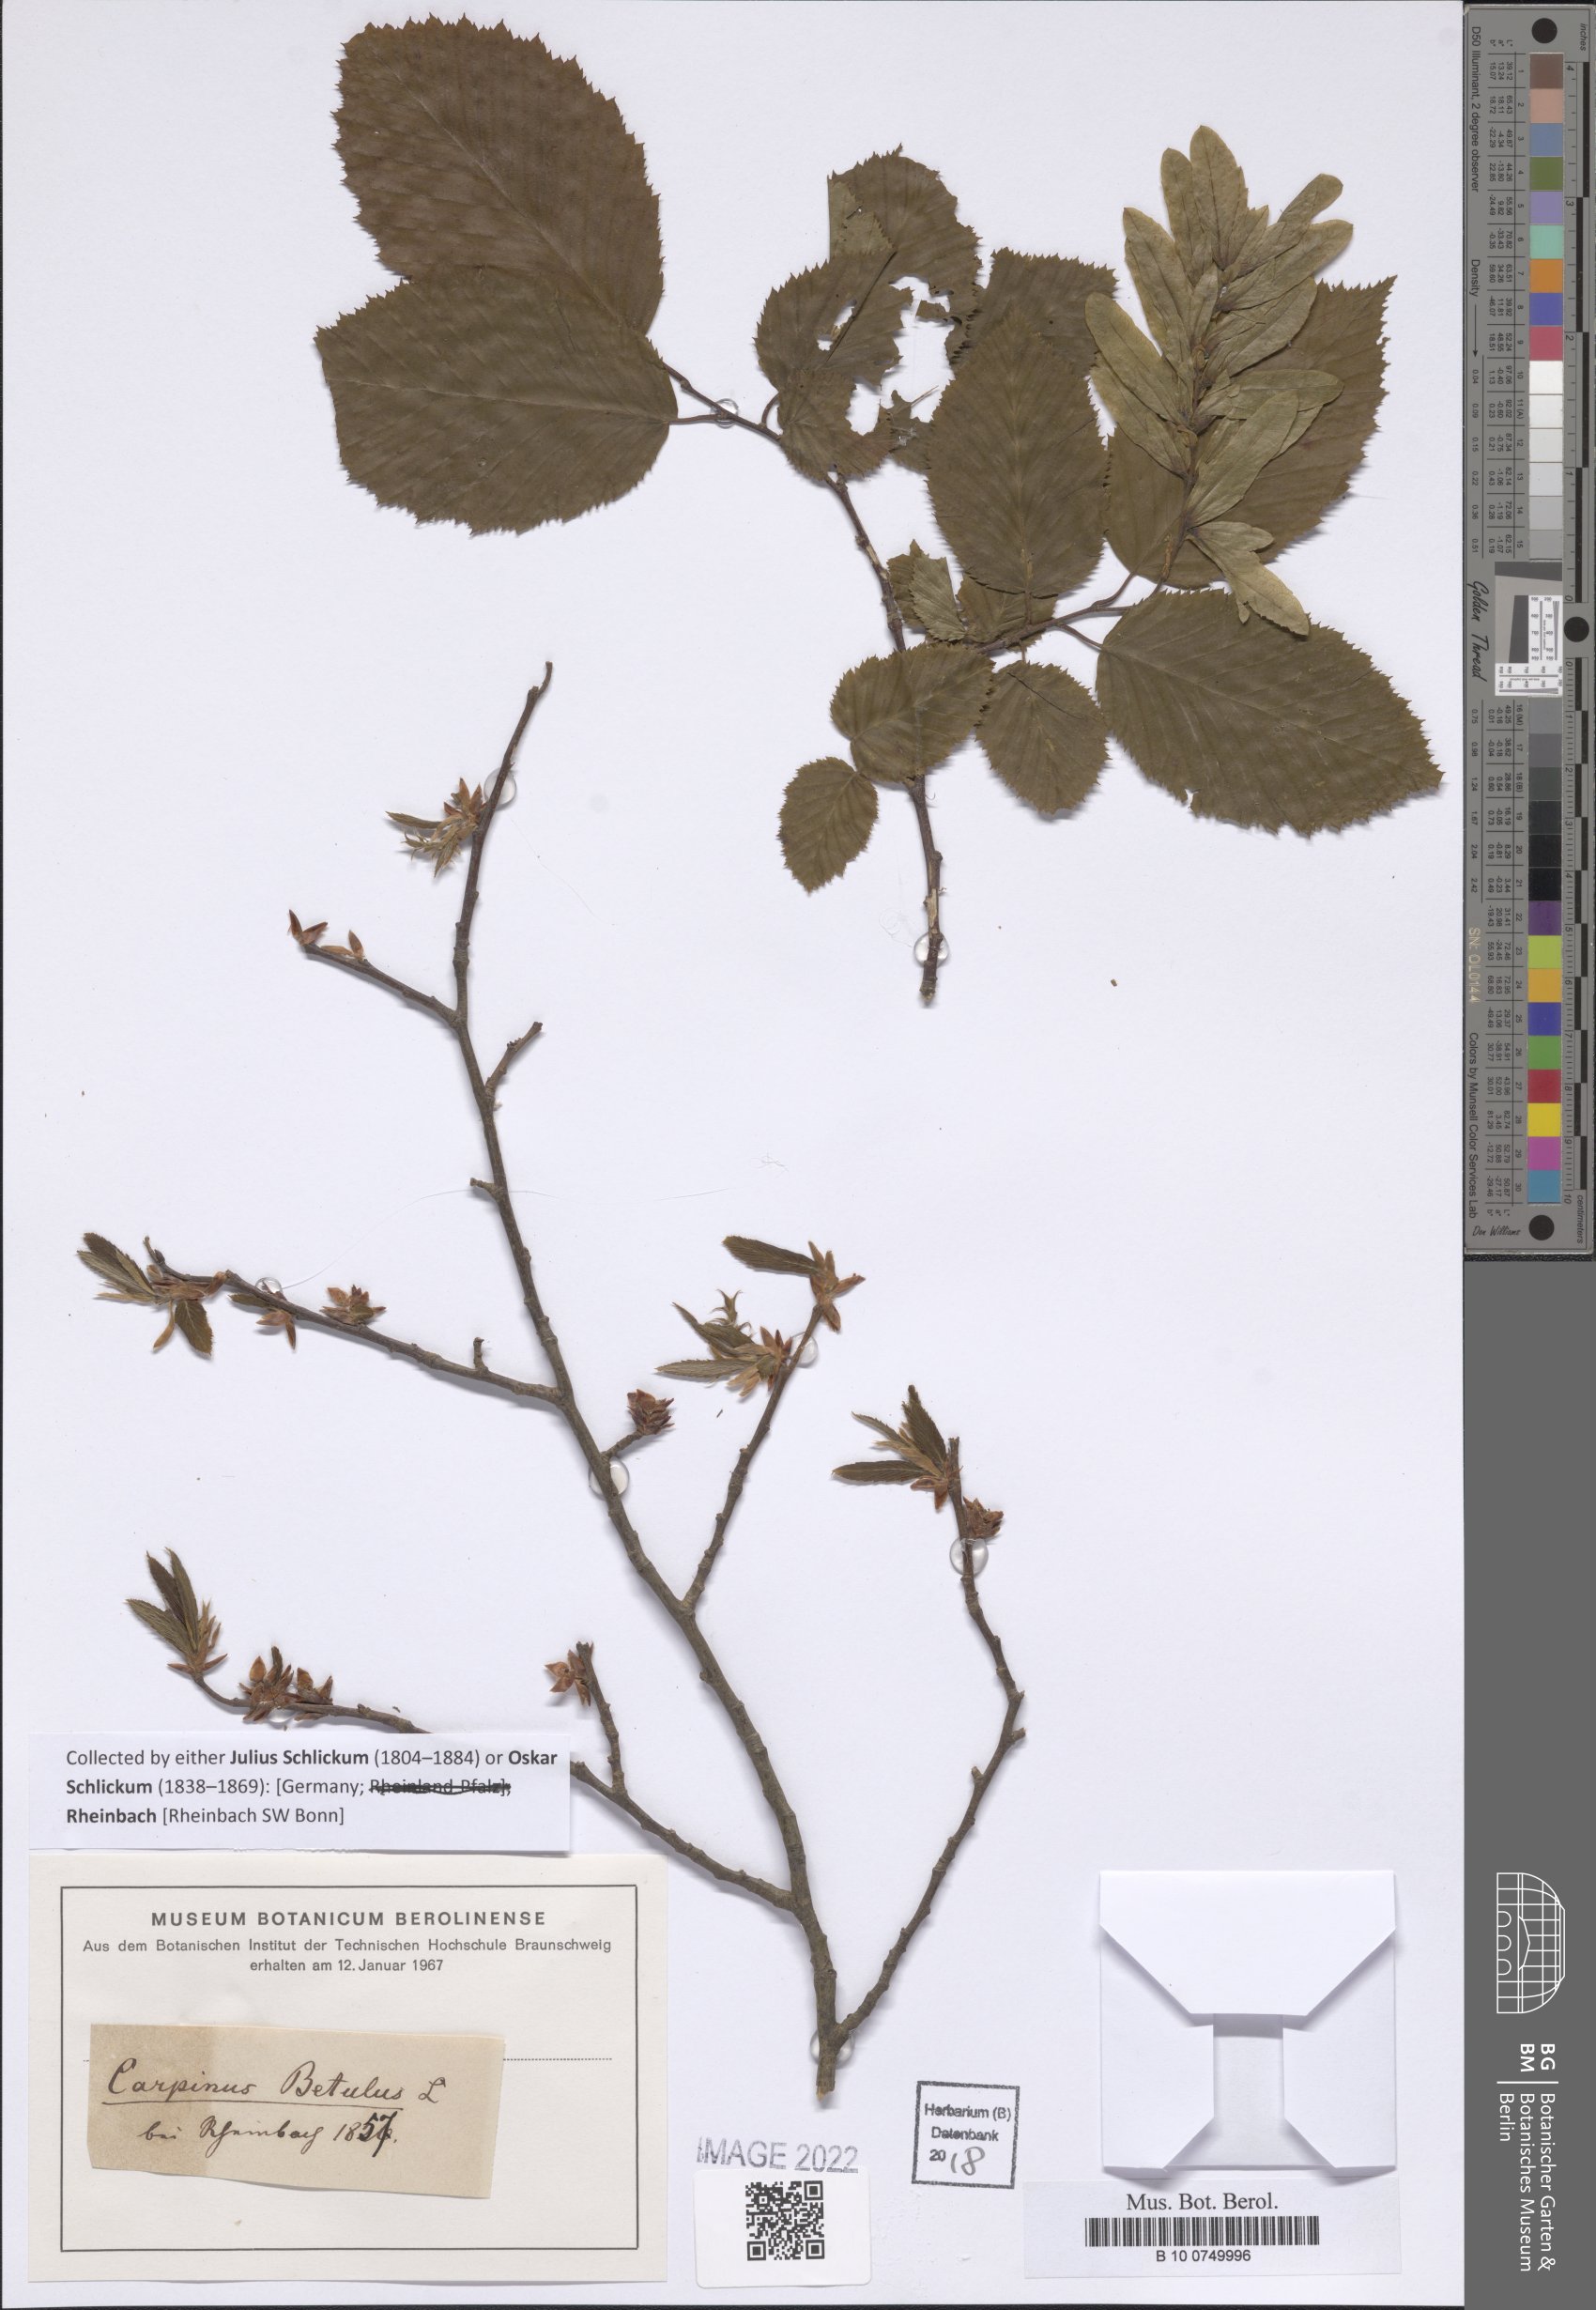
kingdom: Plantae
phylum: Tracheophyta
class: Magnoliopsida
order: Fagales
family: Betulaceae
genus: Carpinus
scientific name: Carpinus betulus
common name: Hornbeam
